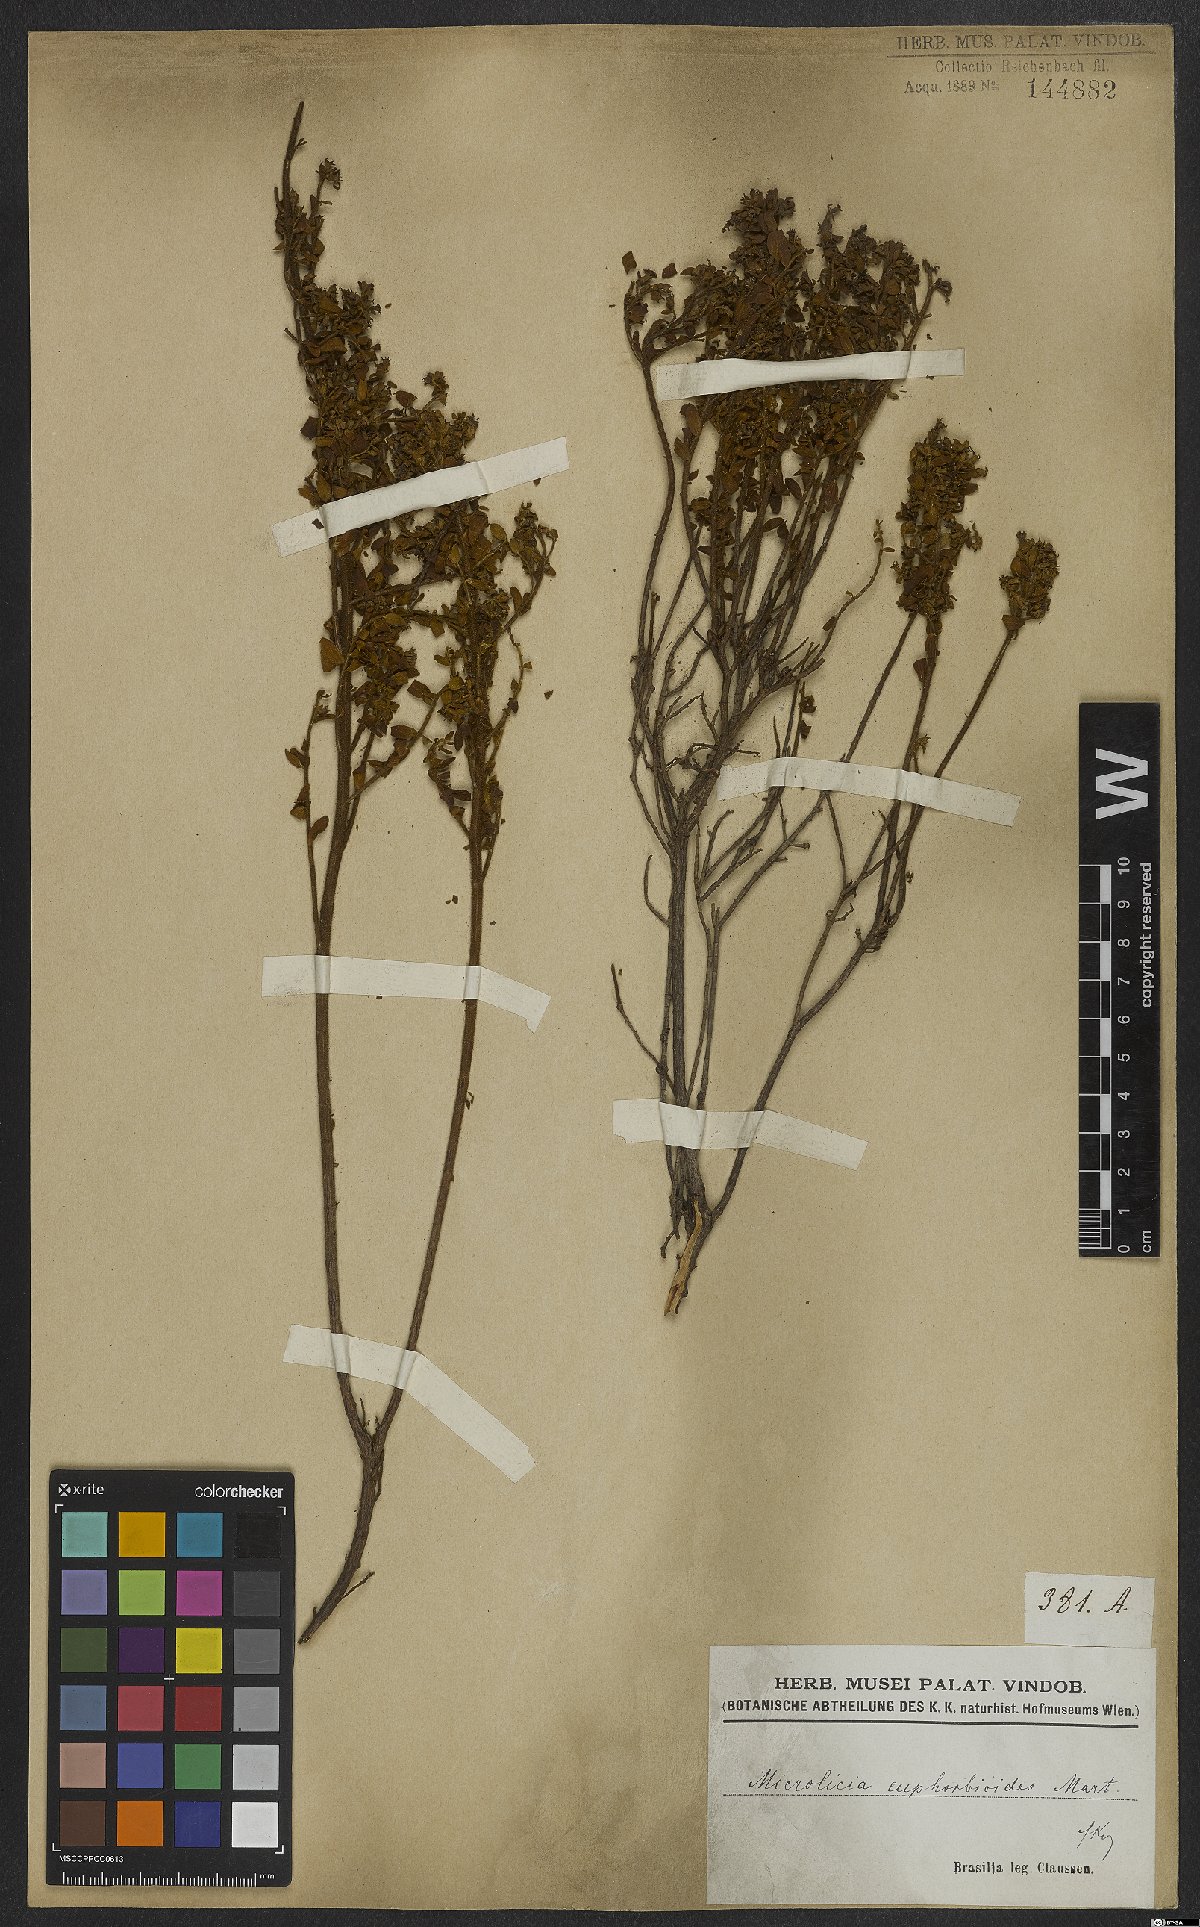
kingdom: Plantae
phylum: Tracheophyta
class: Magnoliopsida
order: Myrtales
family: Melastomataceae
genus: Microlicia
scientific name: Microlicia euphorbioides
